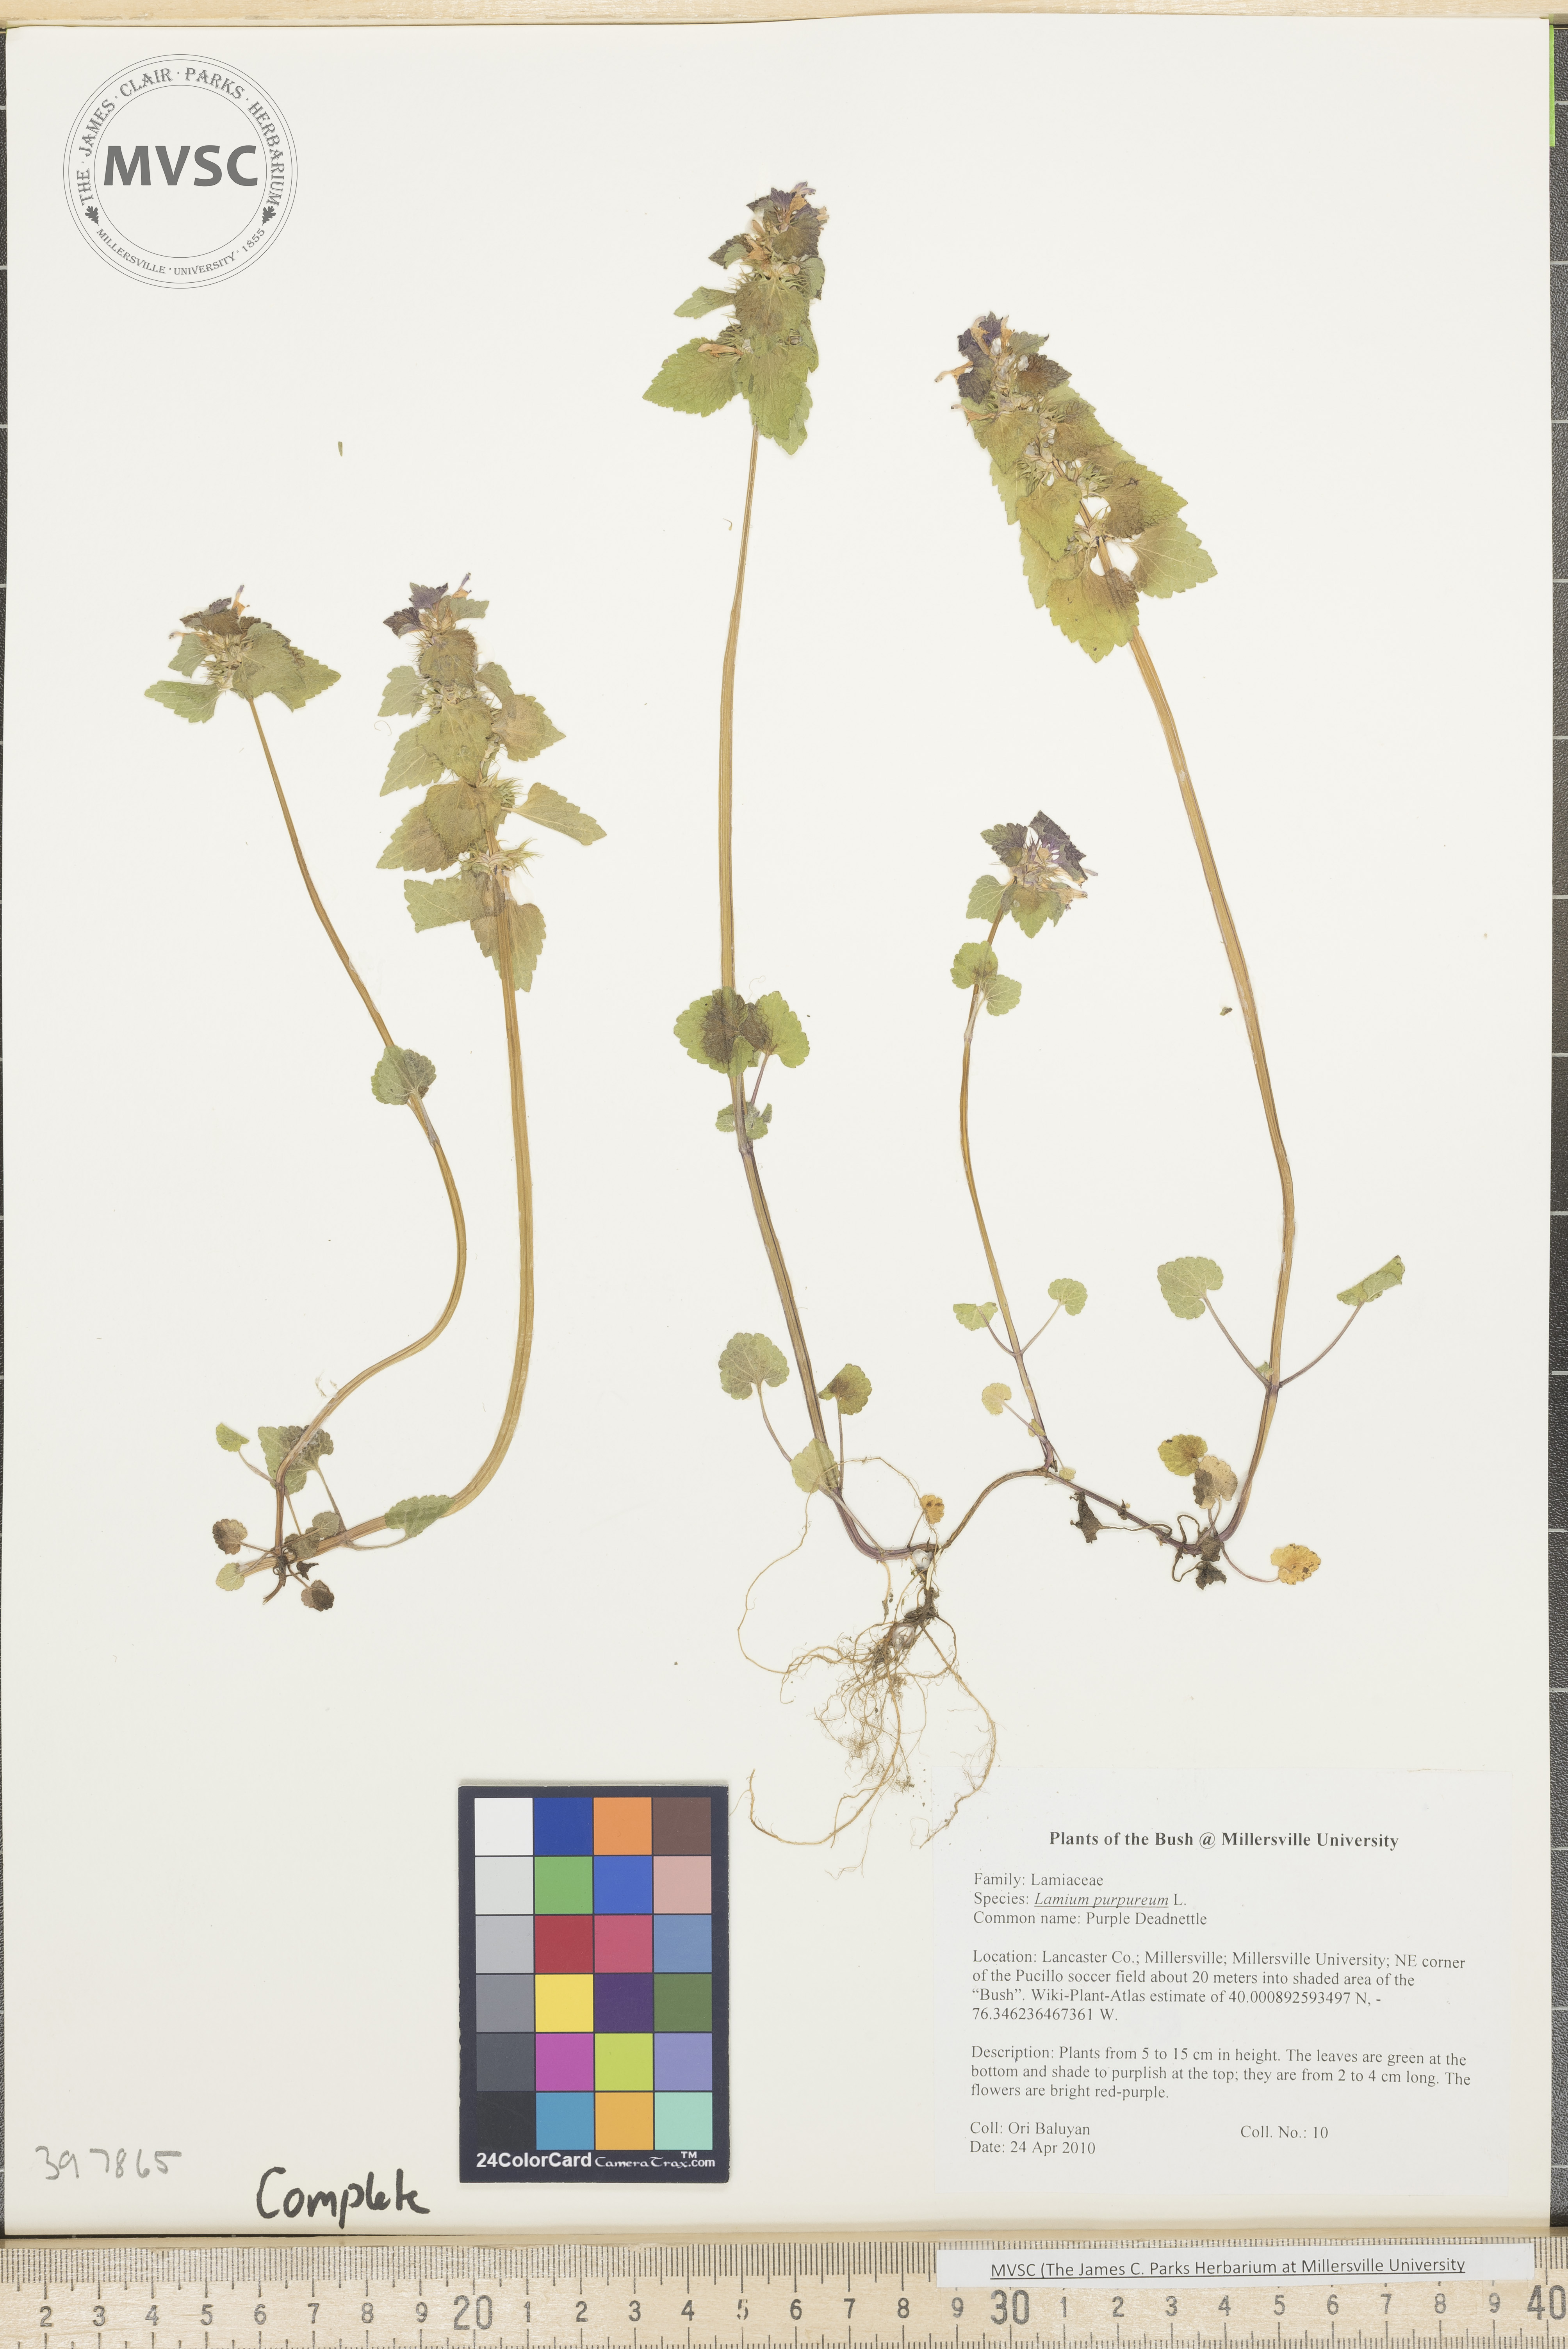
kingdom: Plantae
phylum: Tracheophyta
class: Magnoliopsida
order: Lamiales
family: Lamiaceae
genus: Lamium
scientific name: Lamium purpureum
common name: Purple dead-nettle
